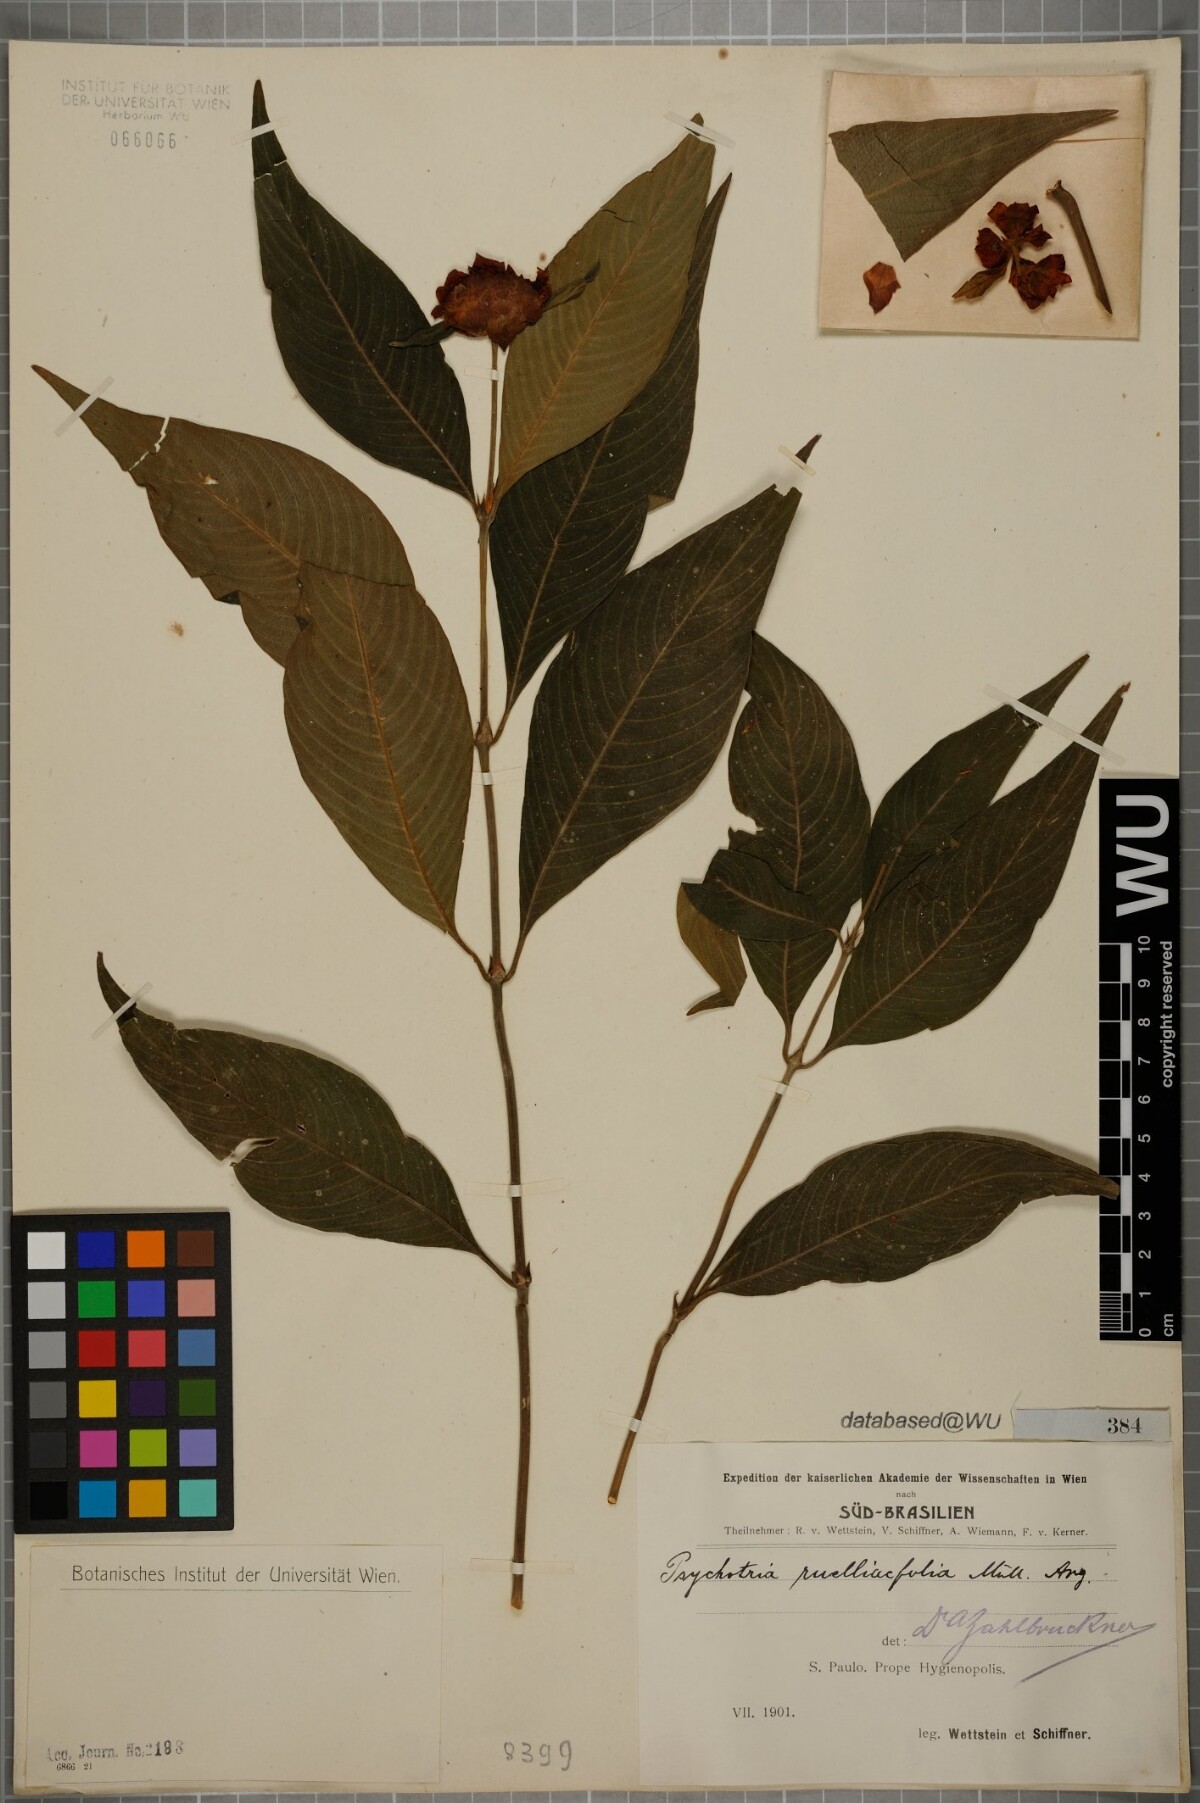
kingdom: Plantae
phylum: Tracheophyta
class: Magnoliopsida
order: Gentianales
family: Rubiaceae
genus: Palicourea
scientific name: Palicourea ruelliifolia
